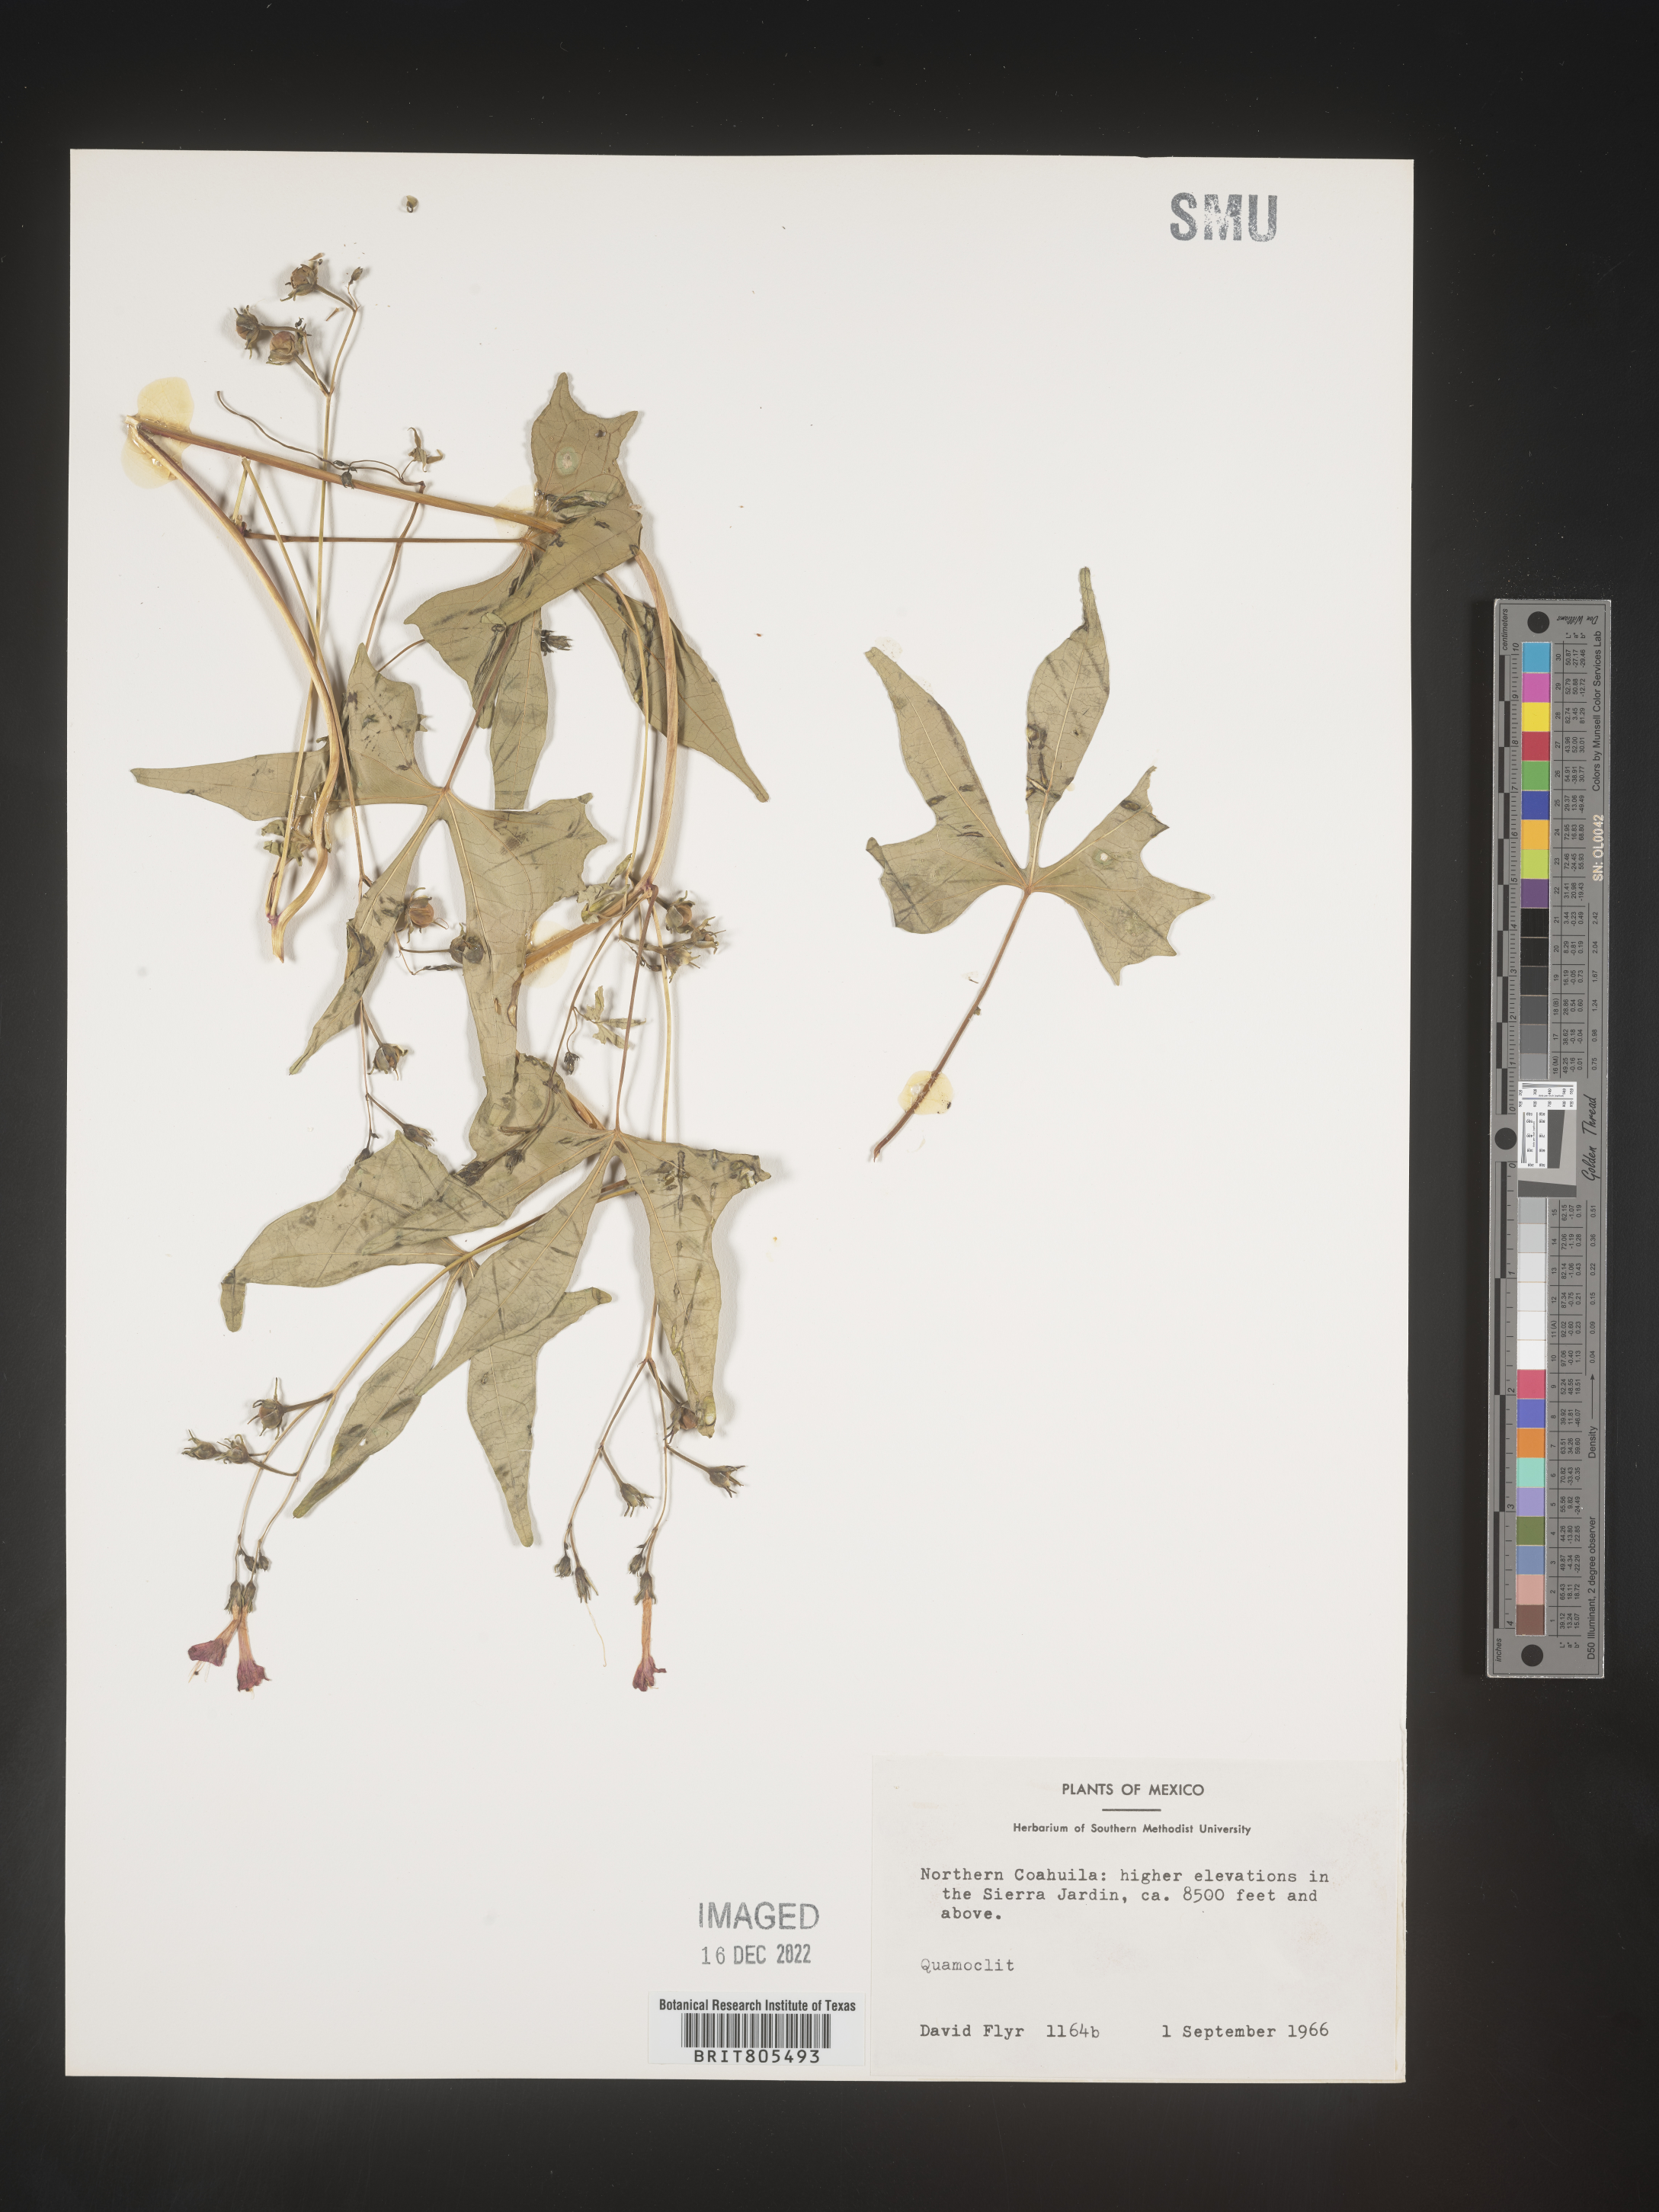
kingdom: Plantae
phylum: Tracheophyta
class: Magnoliopsida
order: Solanales
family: Convolvulaceae
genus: Ipomoea
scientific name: Ipomoea
